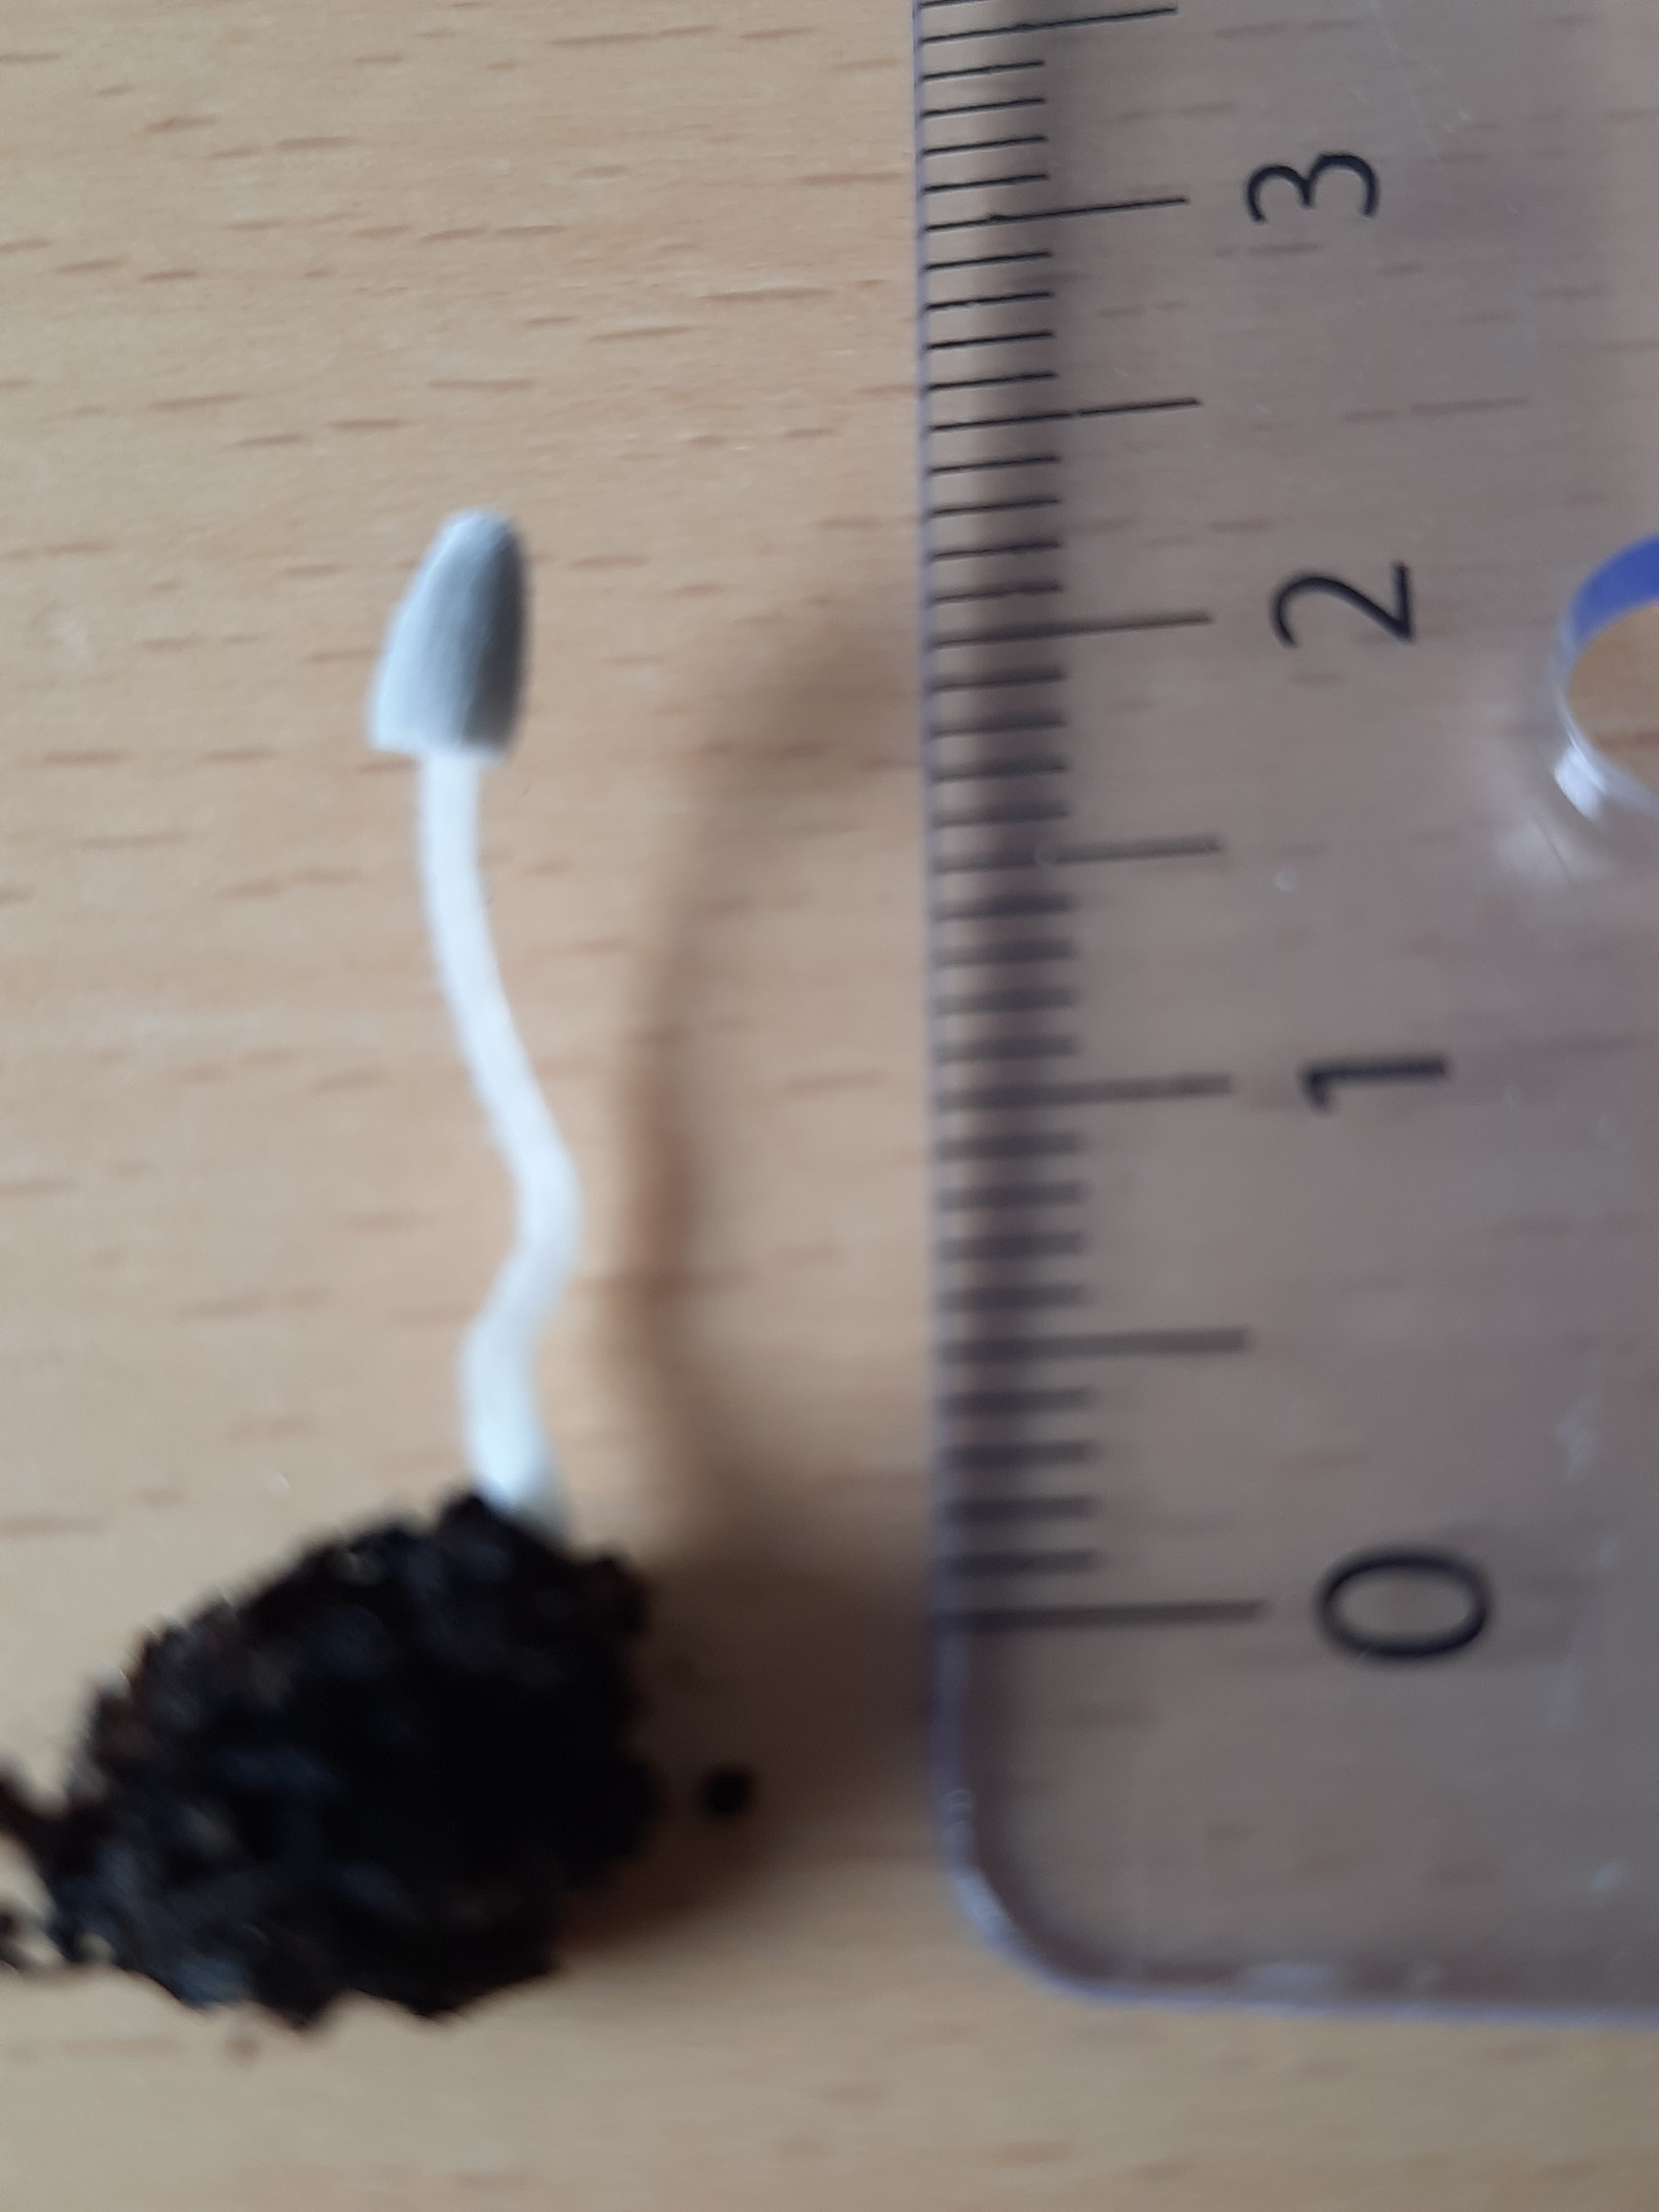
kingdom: Fungi
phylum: Basidiomycota
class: Agaricomycetes
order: Agaricales
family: Psathyrellaceae
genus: Coprinopsis
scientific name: Coprinopsis
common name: blækhat
